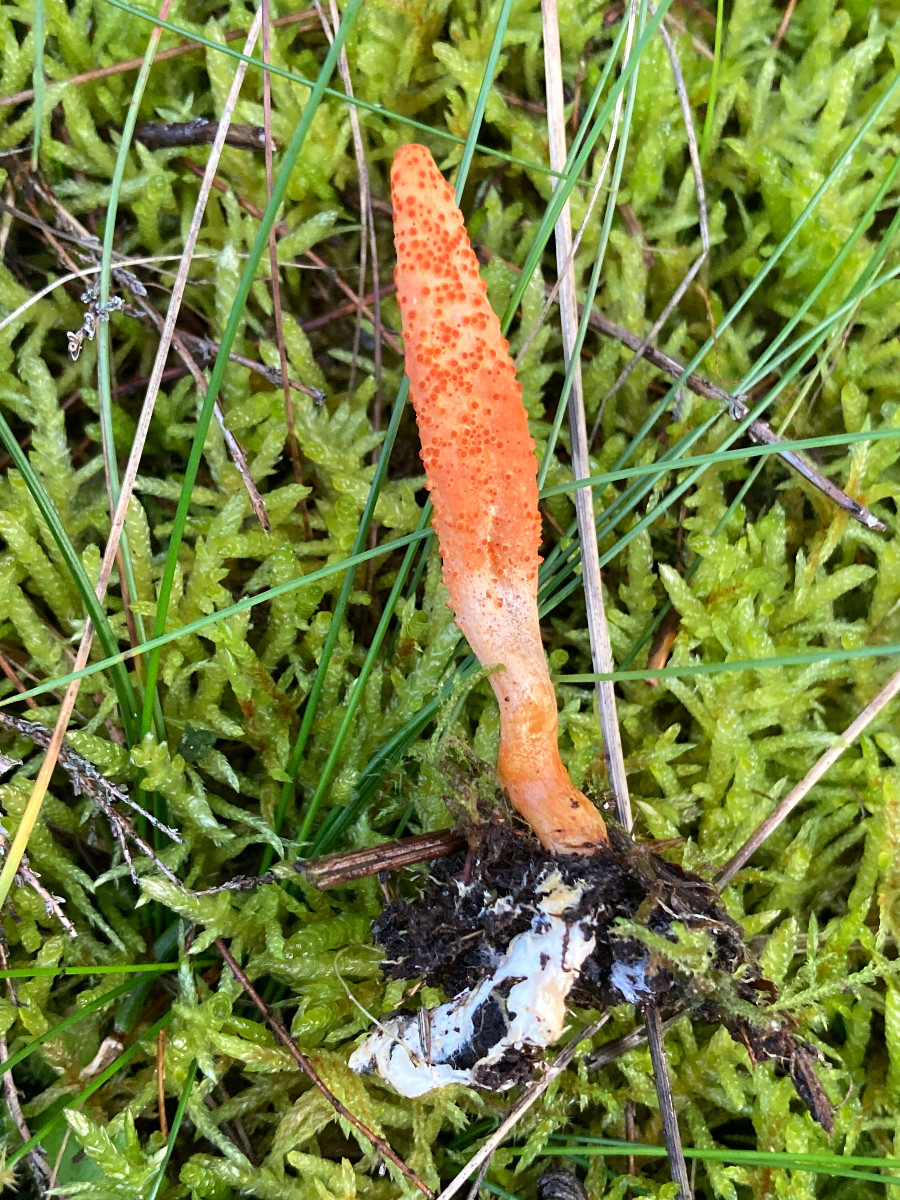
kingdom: Fungi
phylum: Ascomycota
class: Sordariomycetes
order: Hypocreales
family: Cordycipitaceae
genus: Cordyceps
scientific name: Cordyceps militaris
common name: puppe-snyltekølle
